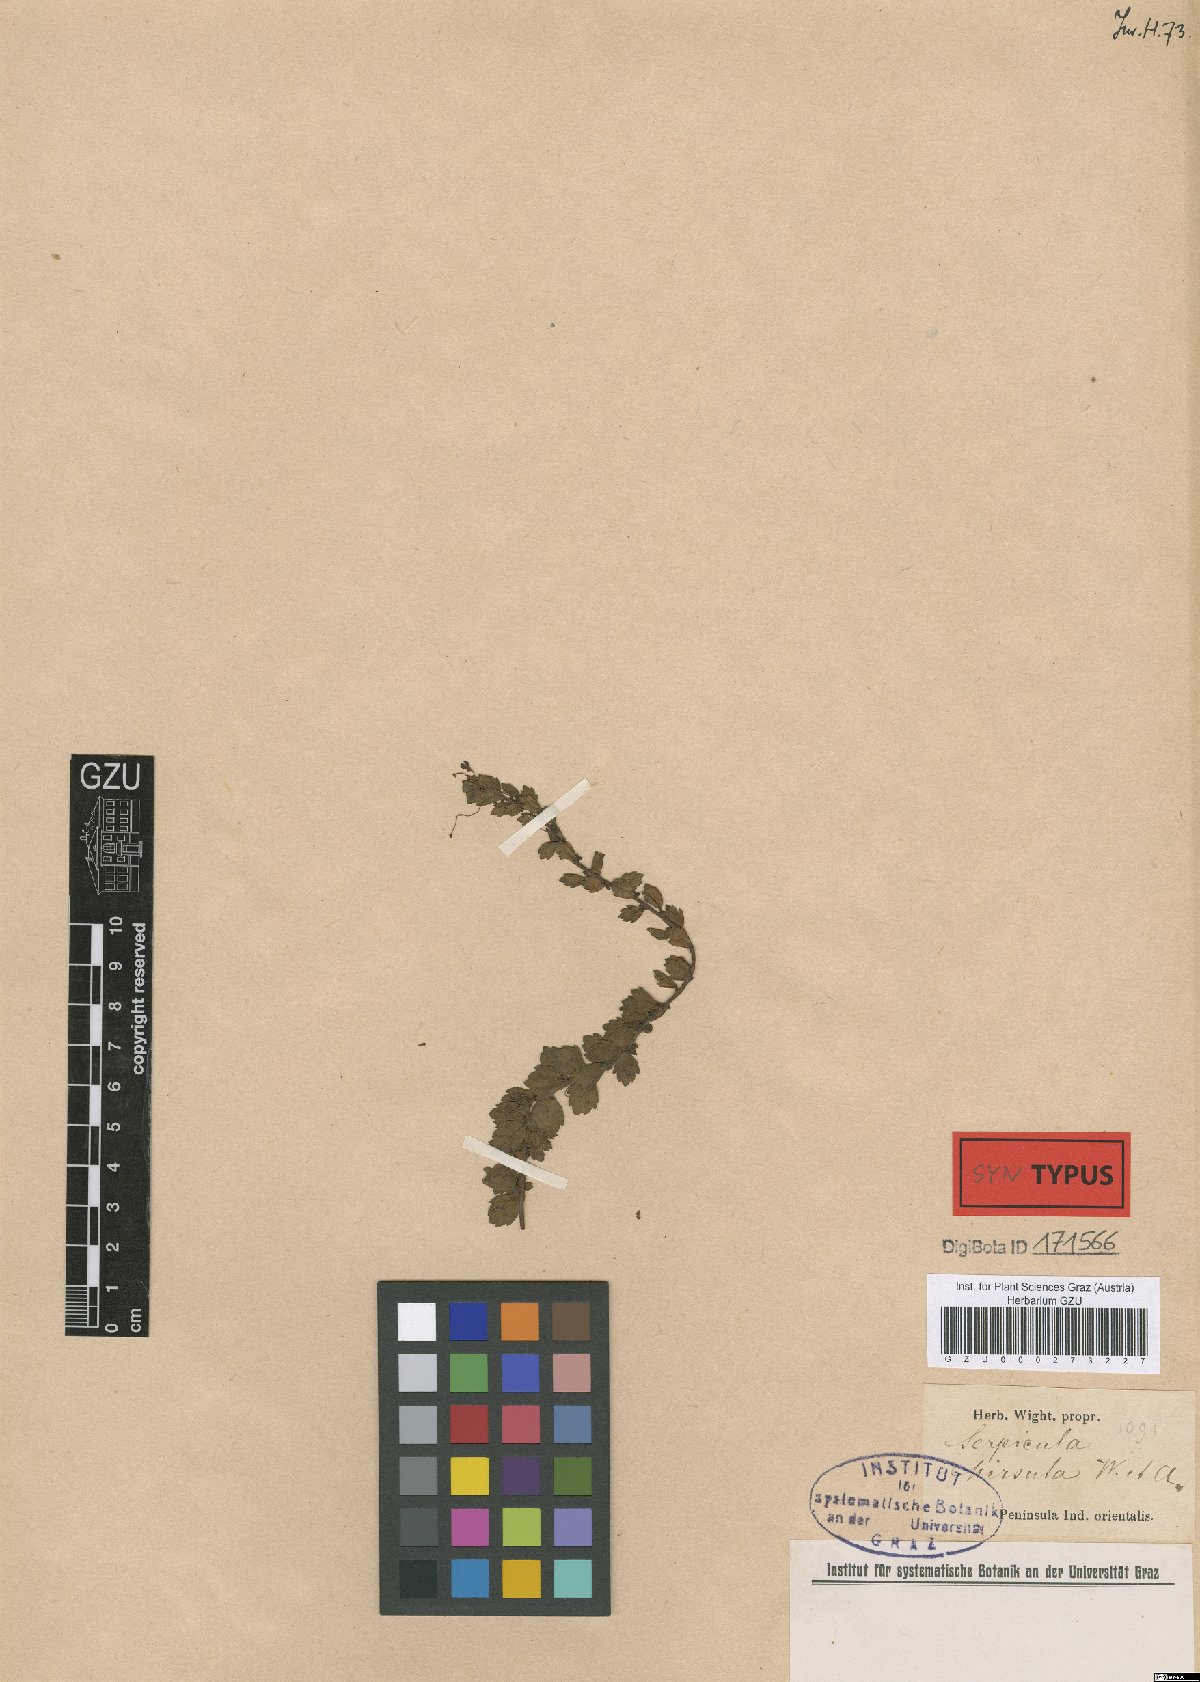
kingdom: Plantae
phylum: Tracheophyta
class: Magnoliopsida
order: Saxifragales
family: Haloragaceae
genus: Laurembergia
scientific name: Laurembergia coccinea
